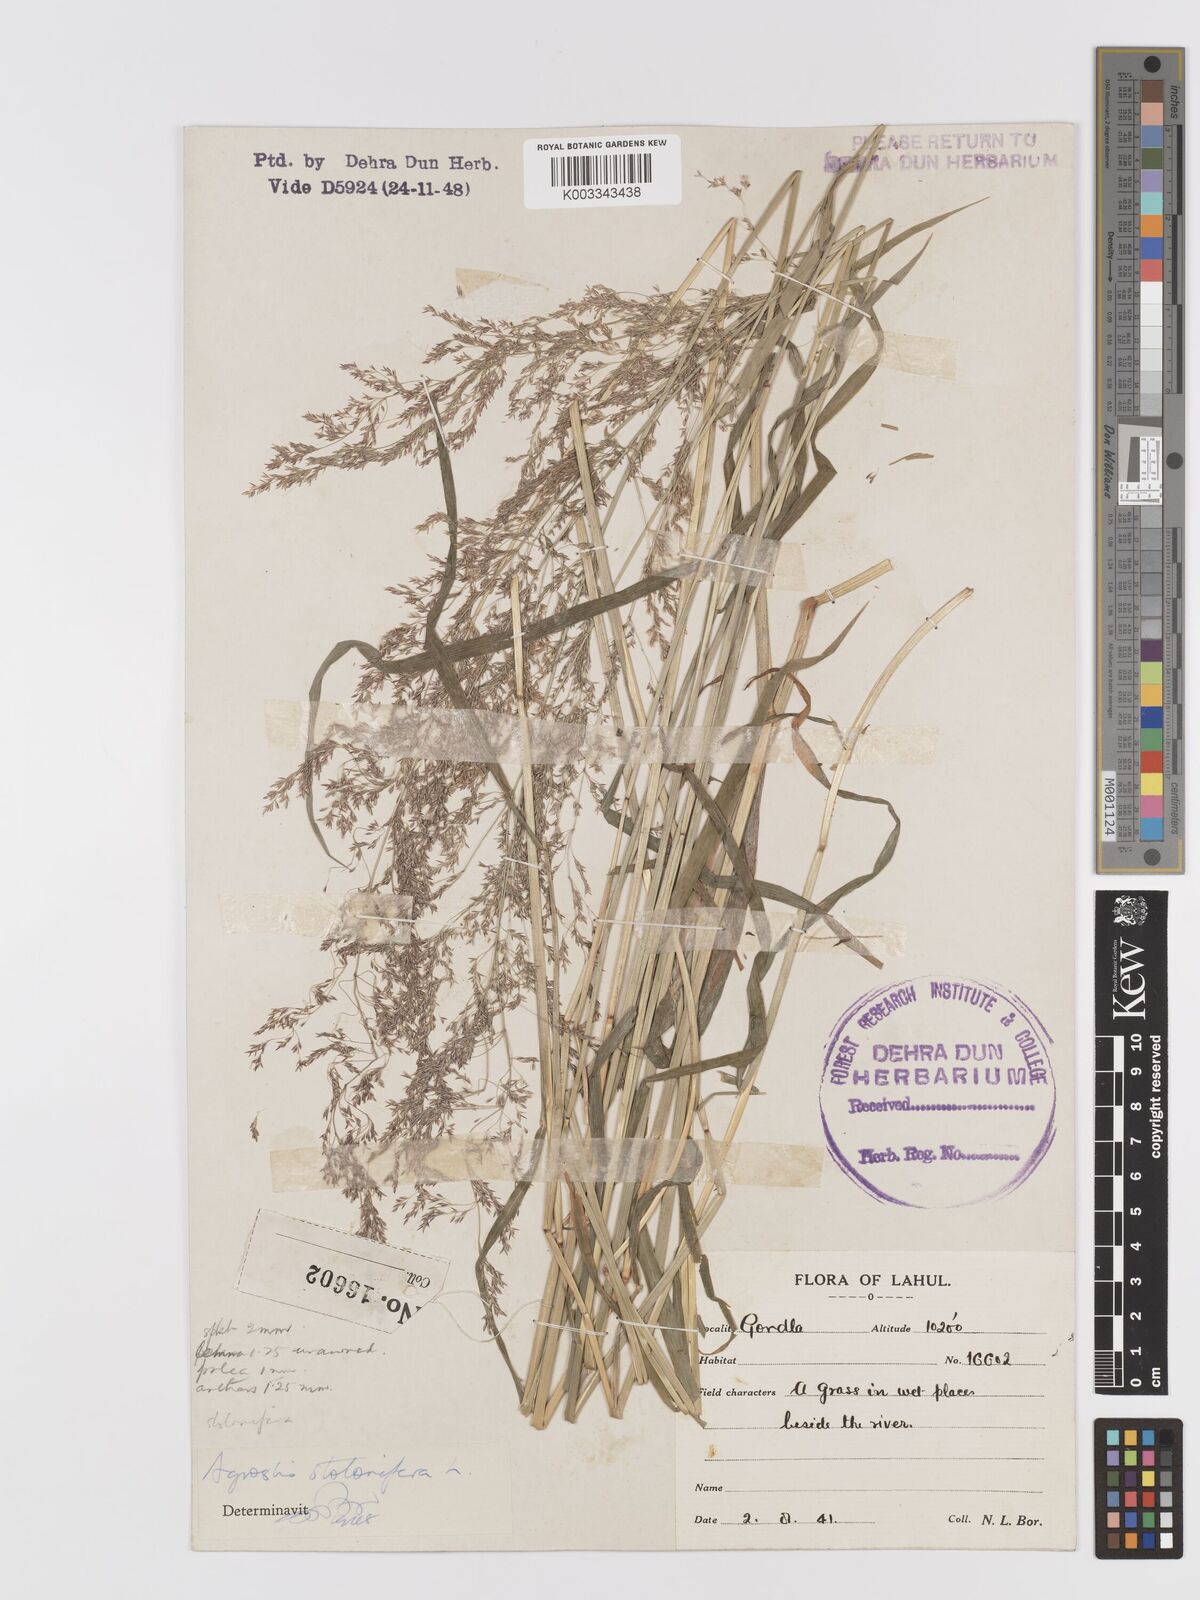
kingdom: Plantae
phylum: Tracheophyta
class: Liliopsida
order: Poales
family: Poaceae
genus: Agrostis
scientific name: Agrostis stolonifera
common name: Creeping bentgrass
